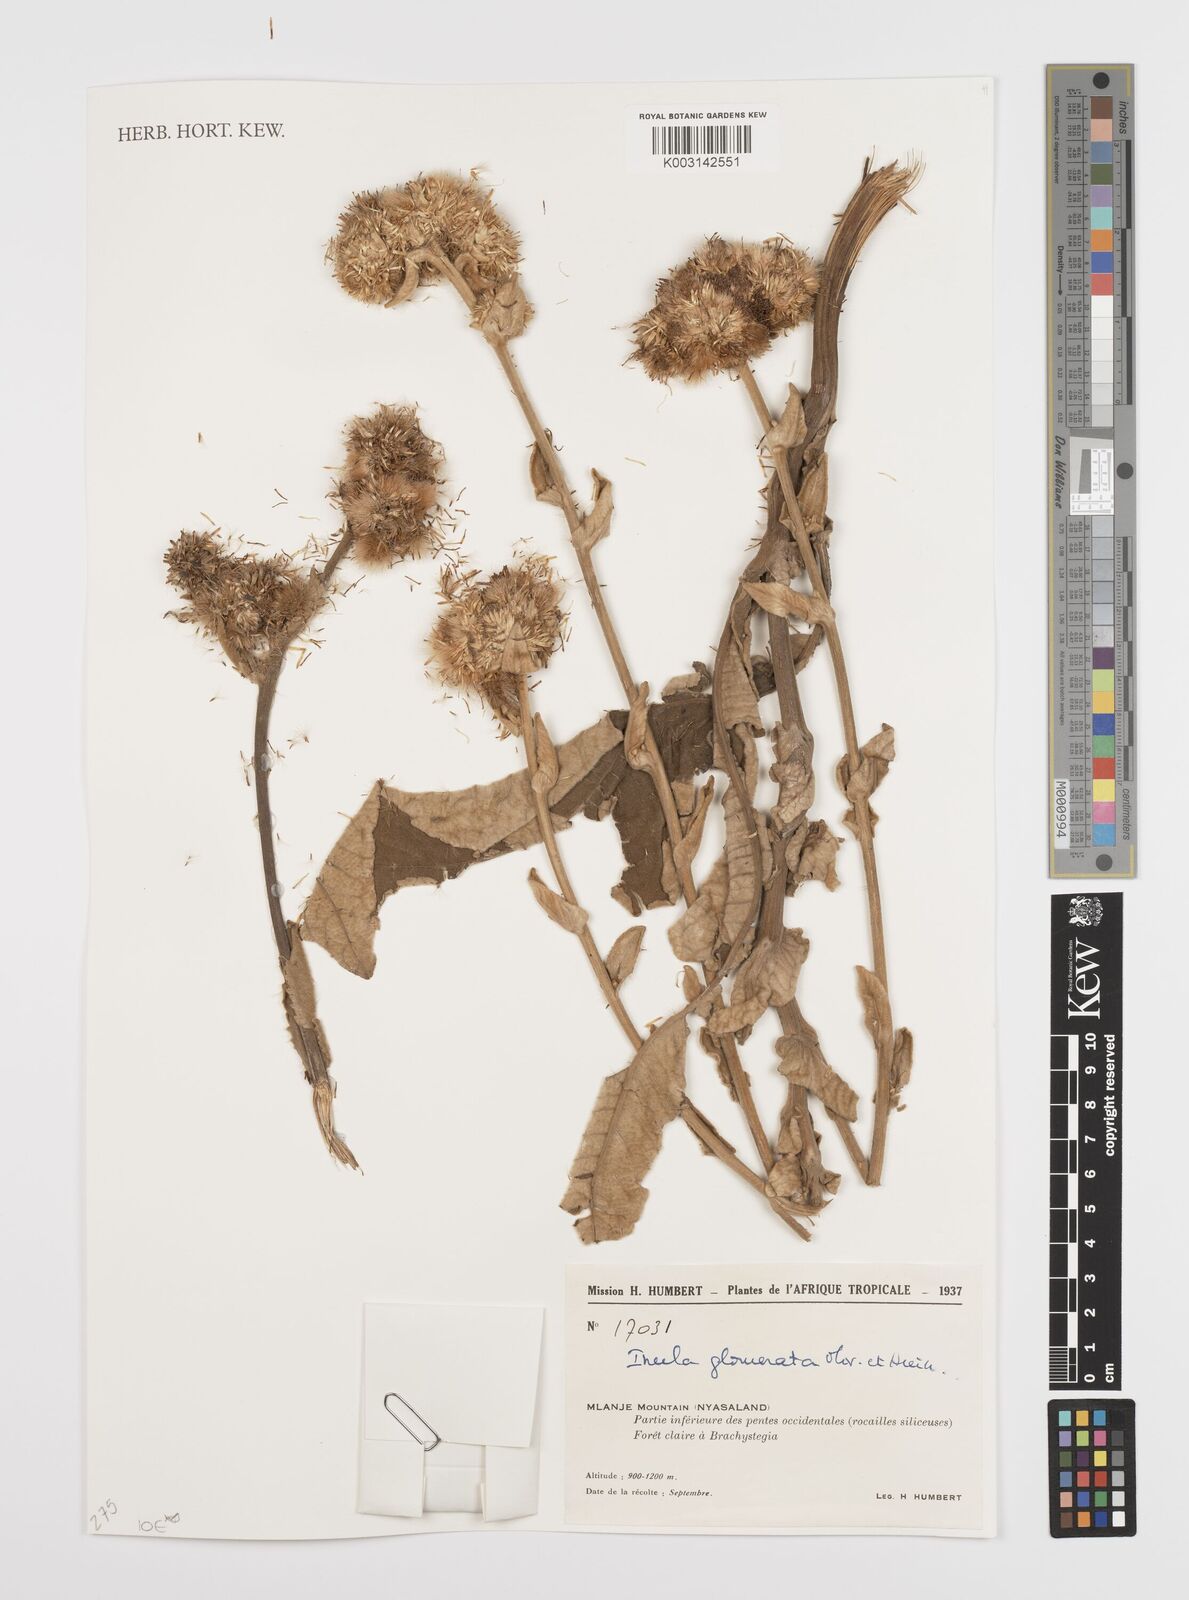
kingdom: Plantae
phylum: Tracheophyta
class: Magnoliopsida
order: Asterales
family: Asteraceae
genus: Inula
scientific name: Inula glomerata
